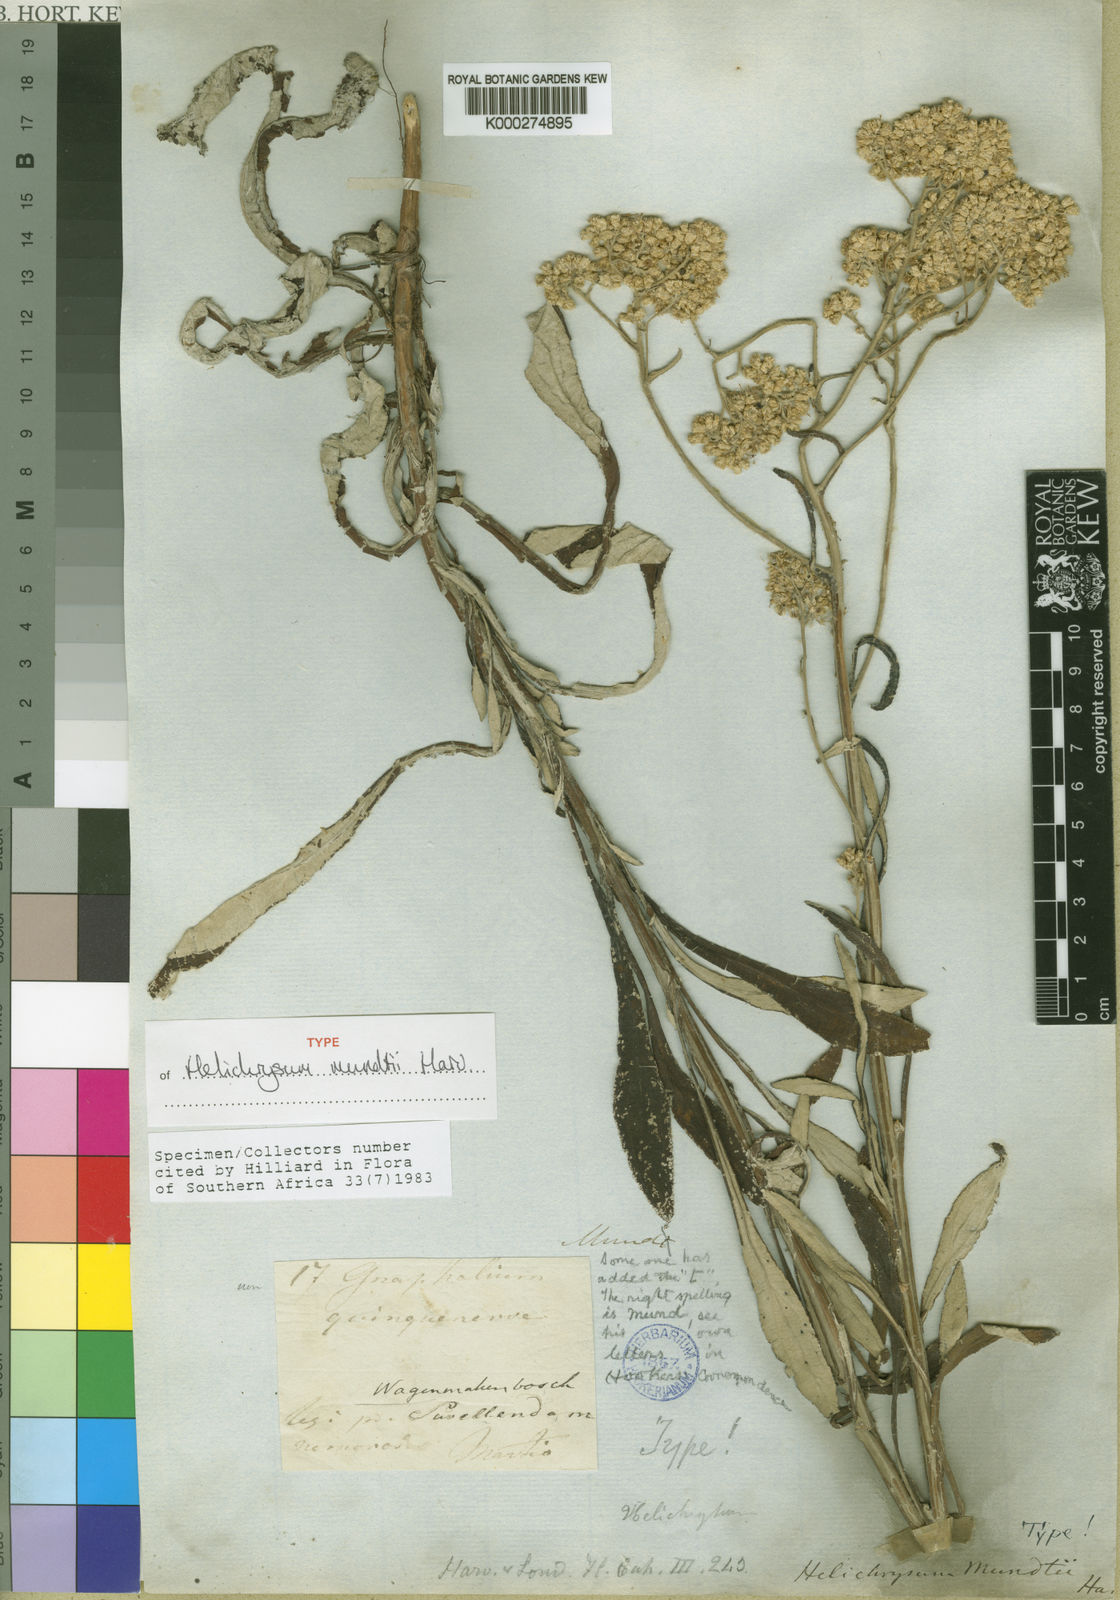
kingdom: Plantae
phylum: Tracheophyta
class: Magnoliopsida
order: Asterales
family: Asteraceae
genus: Helichrysum
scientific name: Helichrysum mundii
